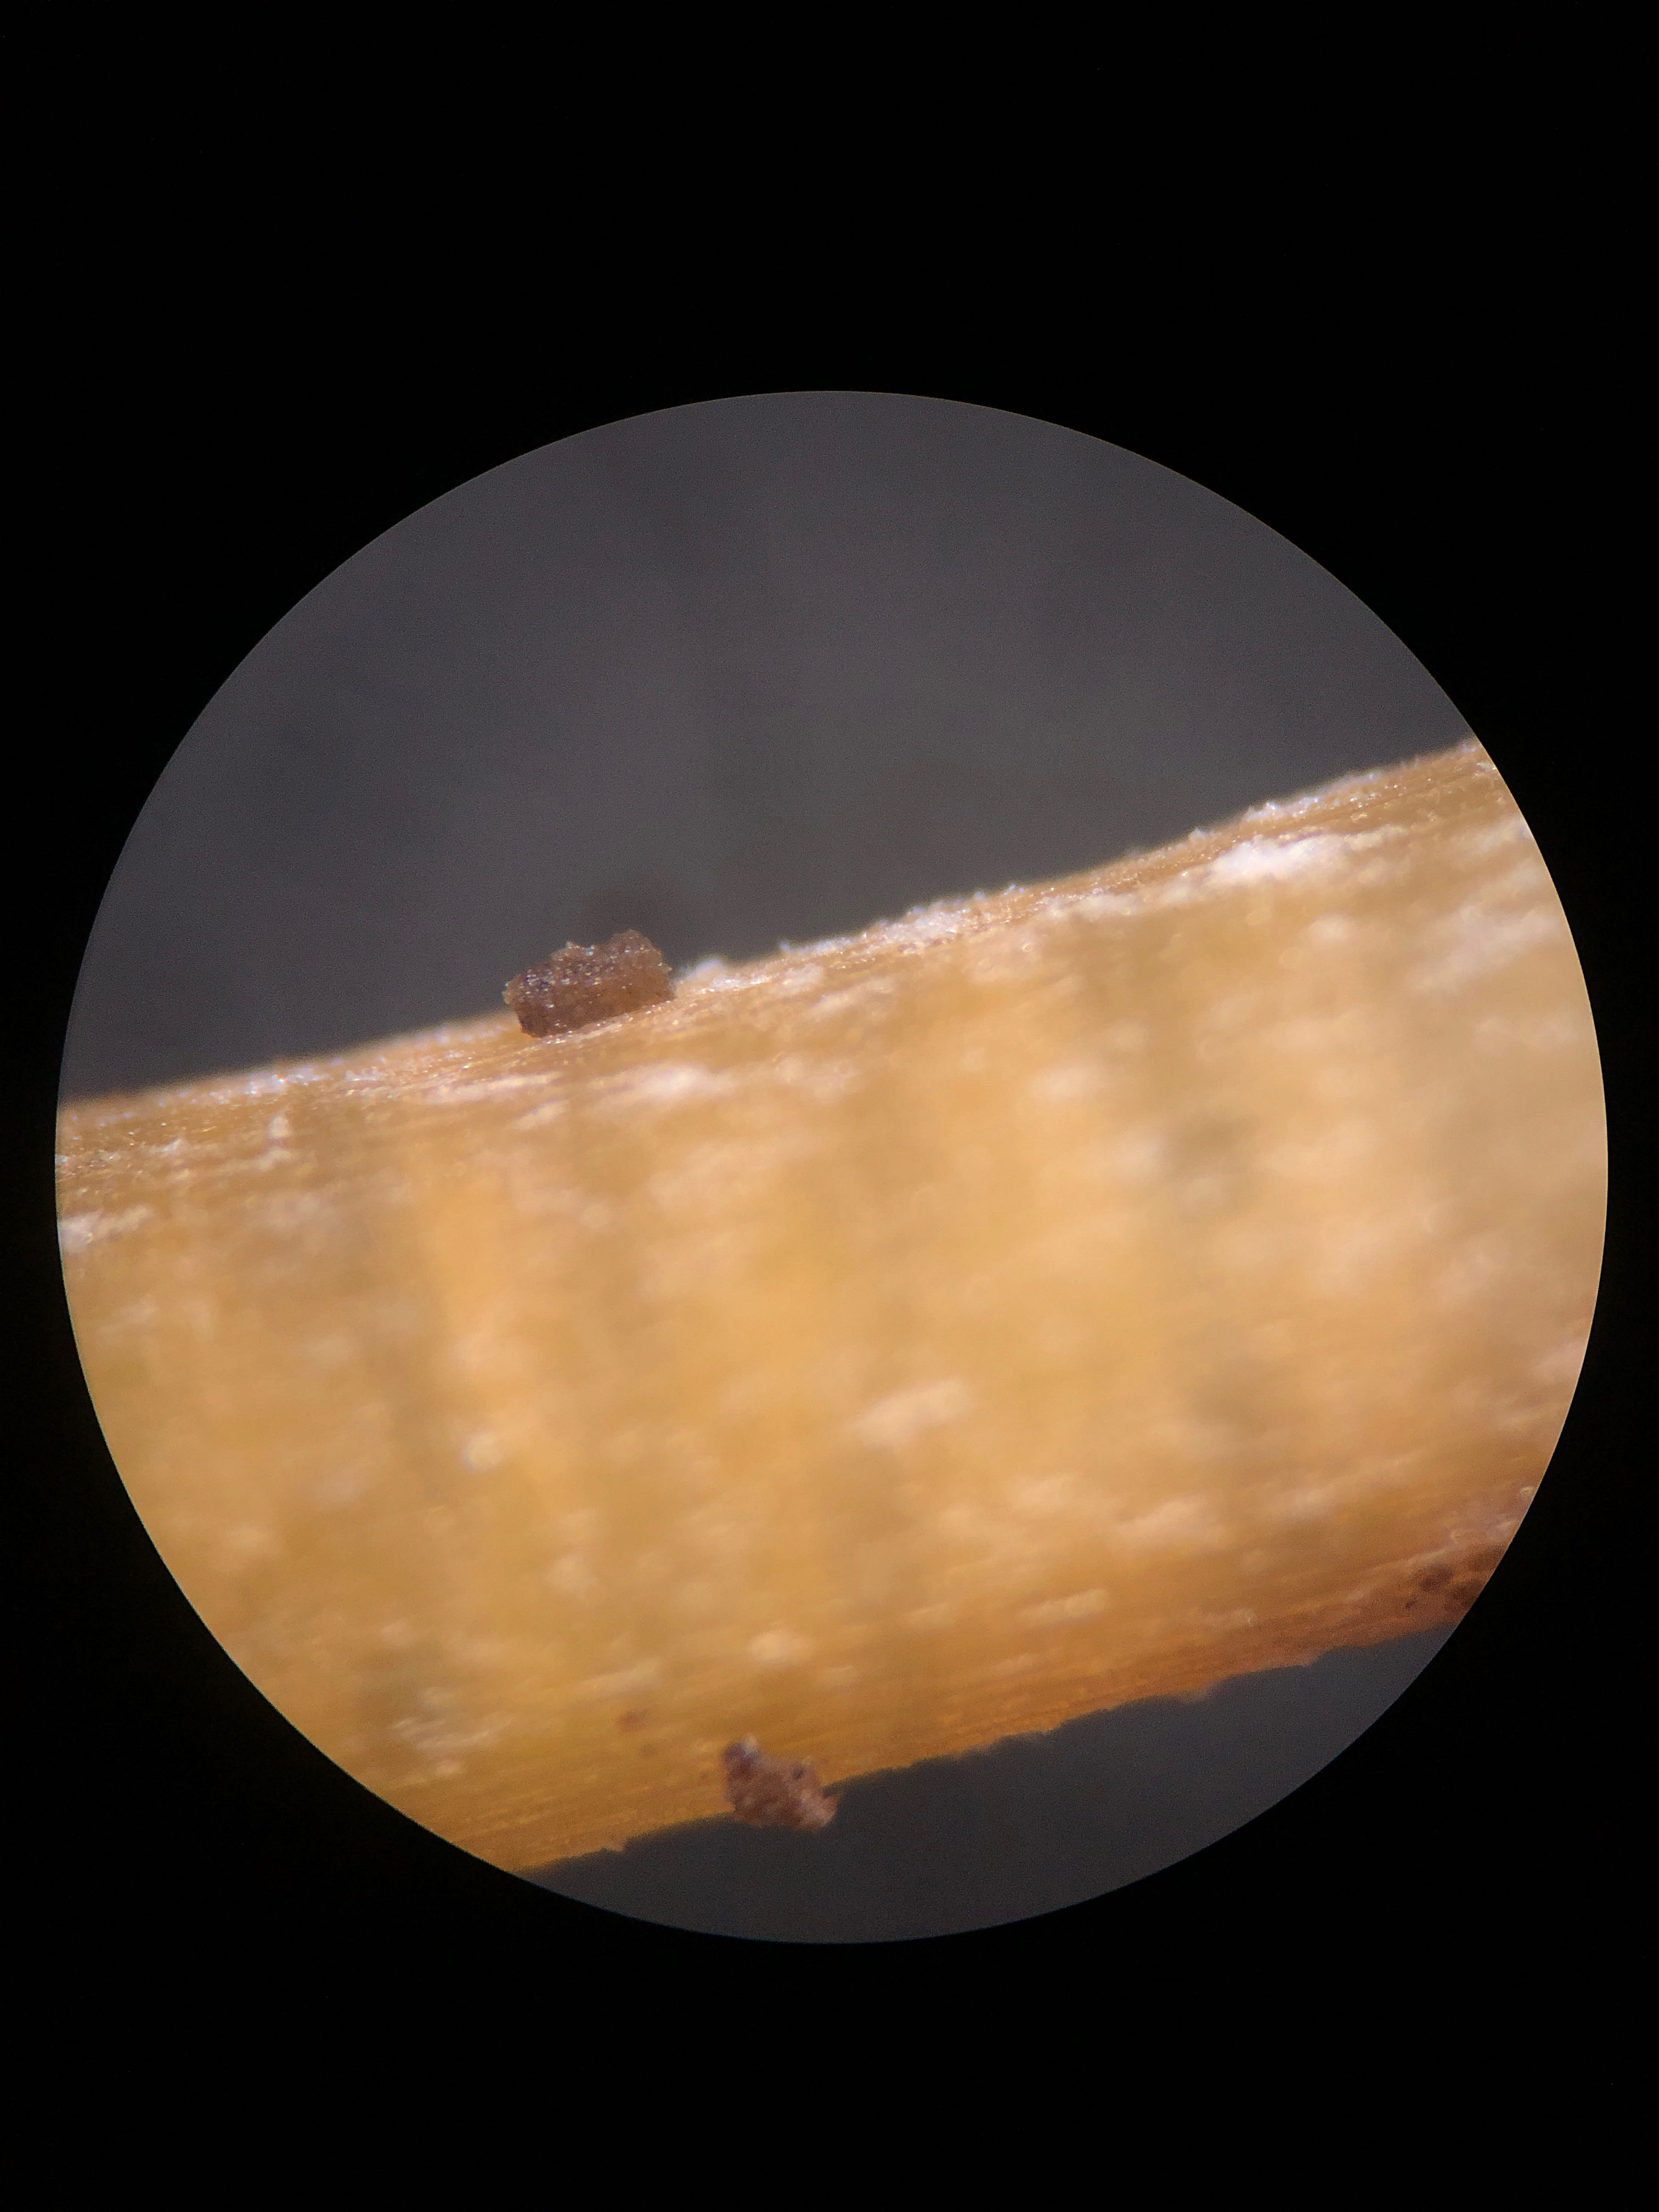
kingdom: Fungi
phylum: Basidiomycota
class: Agaricomycetes
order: Agaricales
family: Mycenaceae
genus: Mycena
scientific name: Mycena inclinata
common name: nikkende huesvamp
